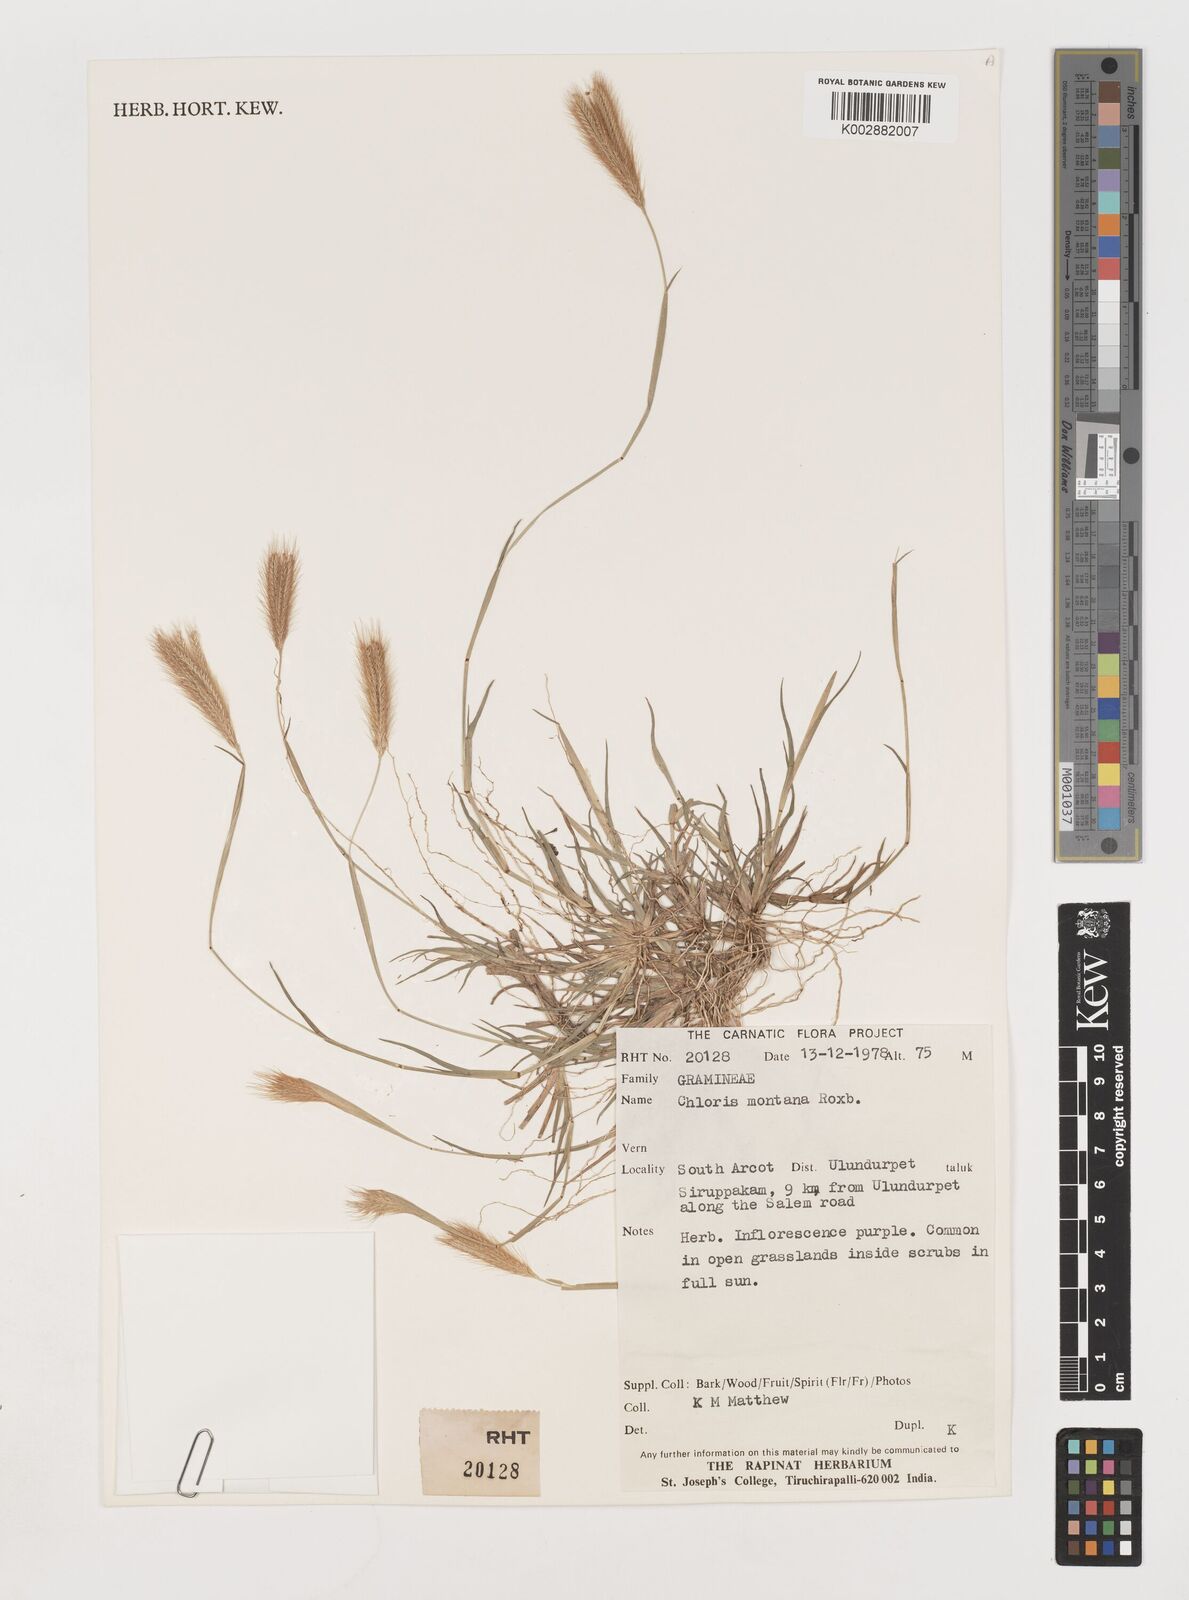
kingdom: Plantae
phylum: Tracheophyta
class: Liliopsida
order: Poales
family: Poaceae
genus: Chloris
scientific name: Chloris montana
